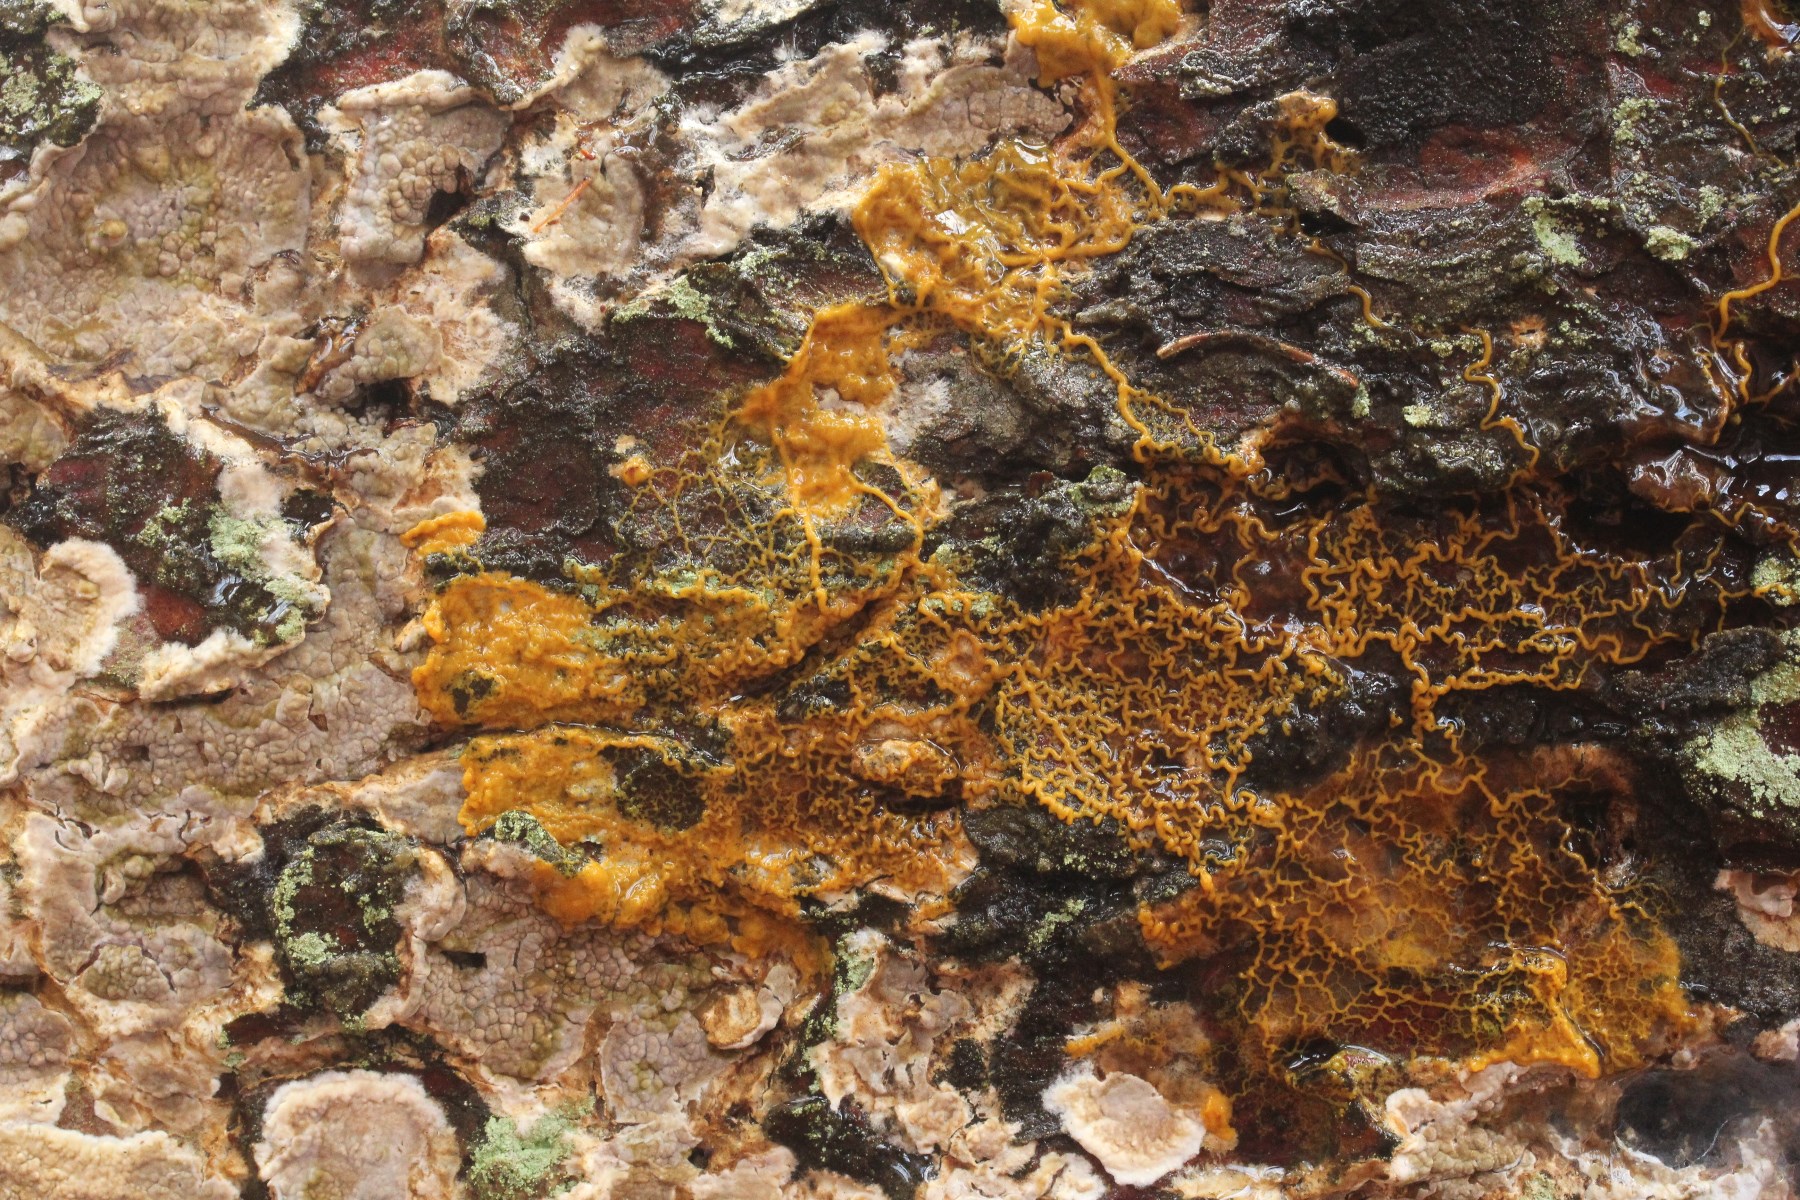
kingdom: Protozoa
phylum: Mycetozoa
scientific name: Mycetozoa
